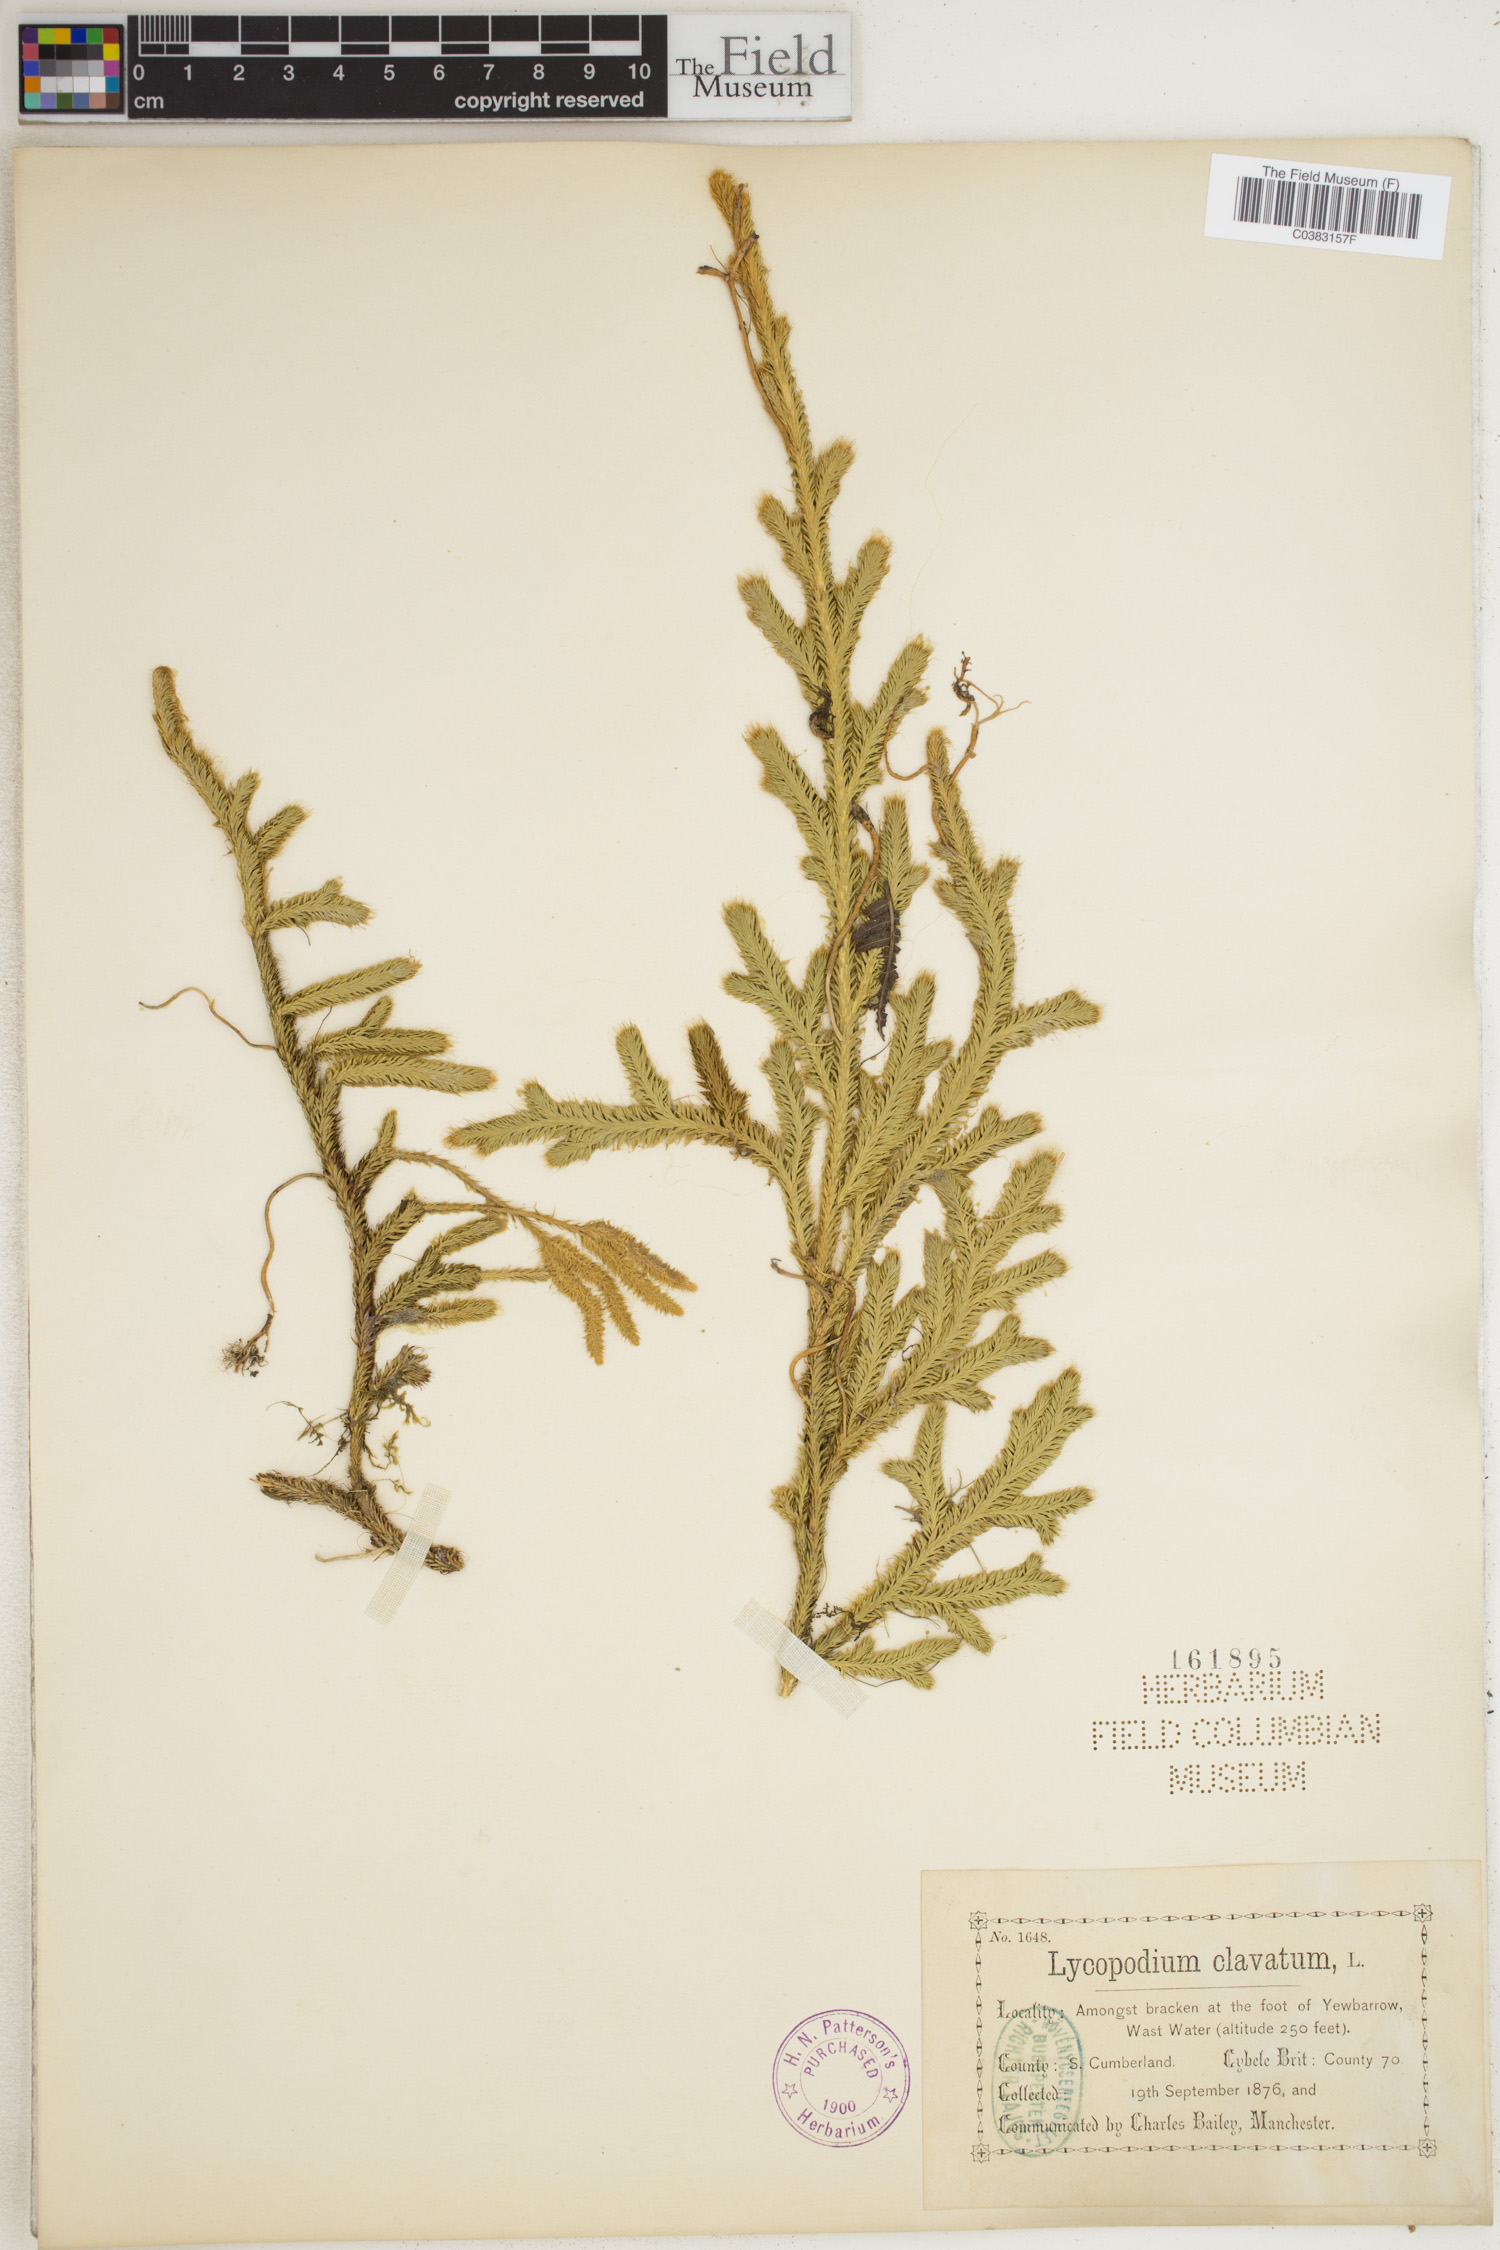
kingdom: Plantae
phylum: Tracheophyta
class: Lycopodiopsida
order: Lycopodiales
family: Lycopodiaceae
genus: Lycopodium
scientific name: Lycopodium clavatum
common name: Stag's-horn clubmoss
